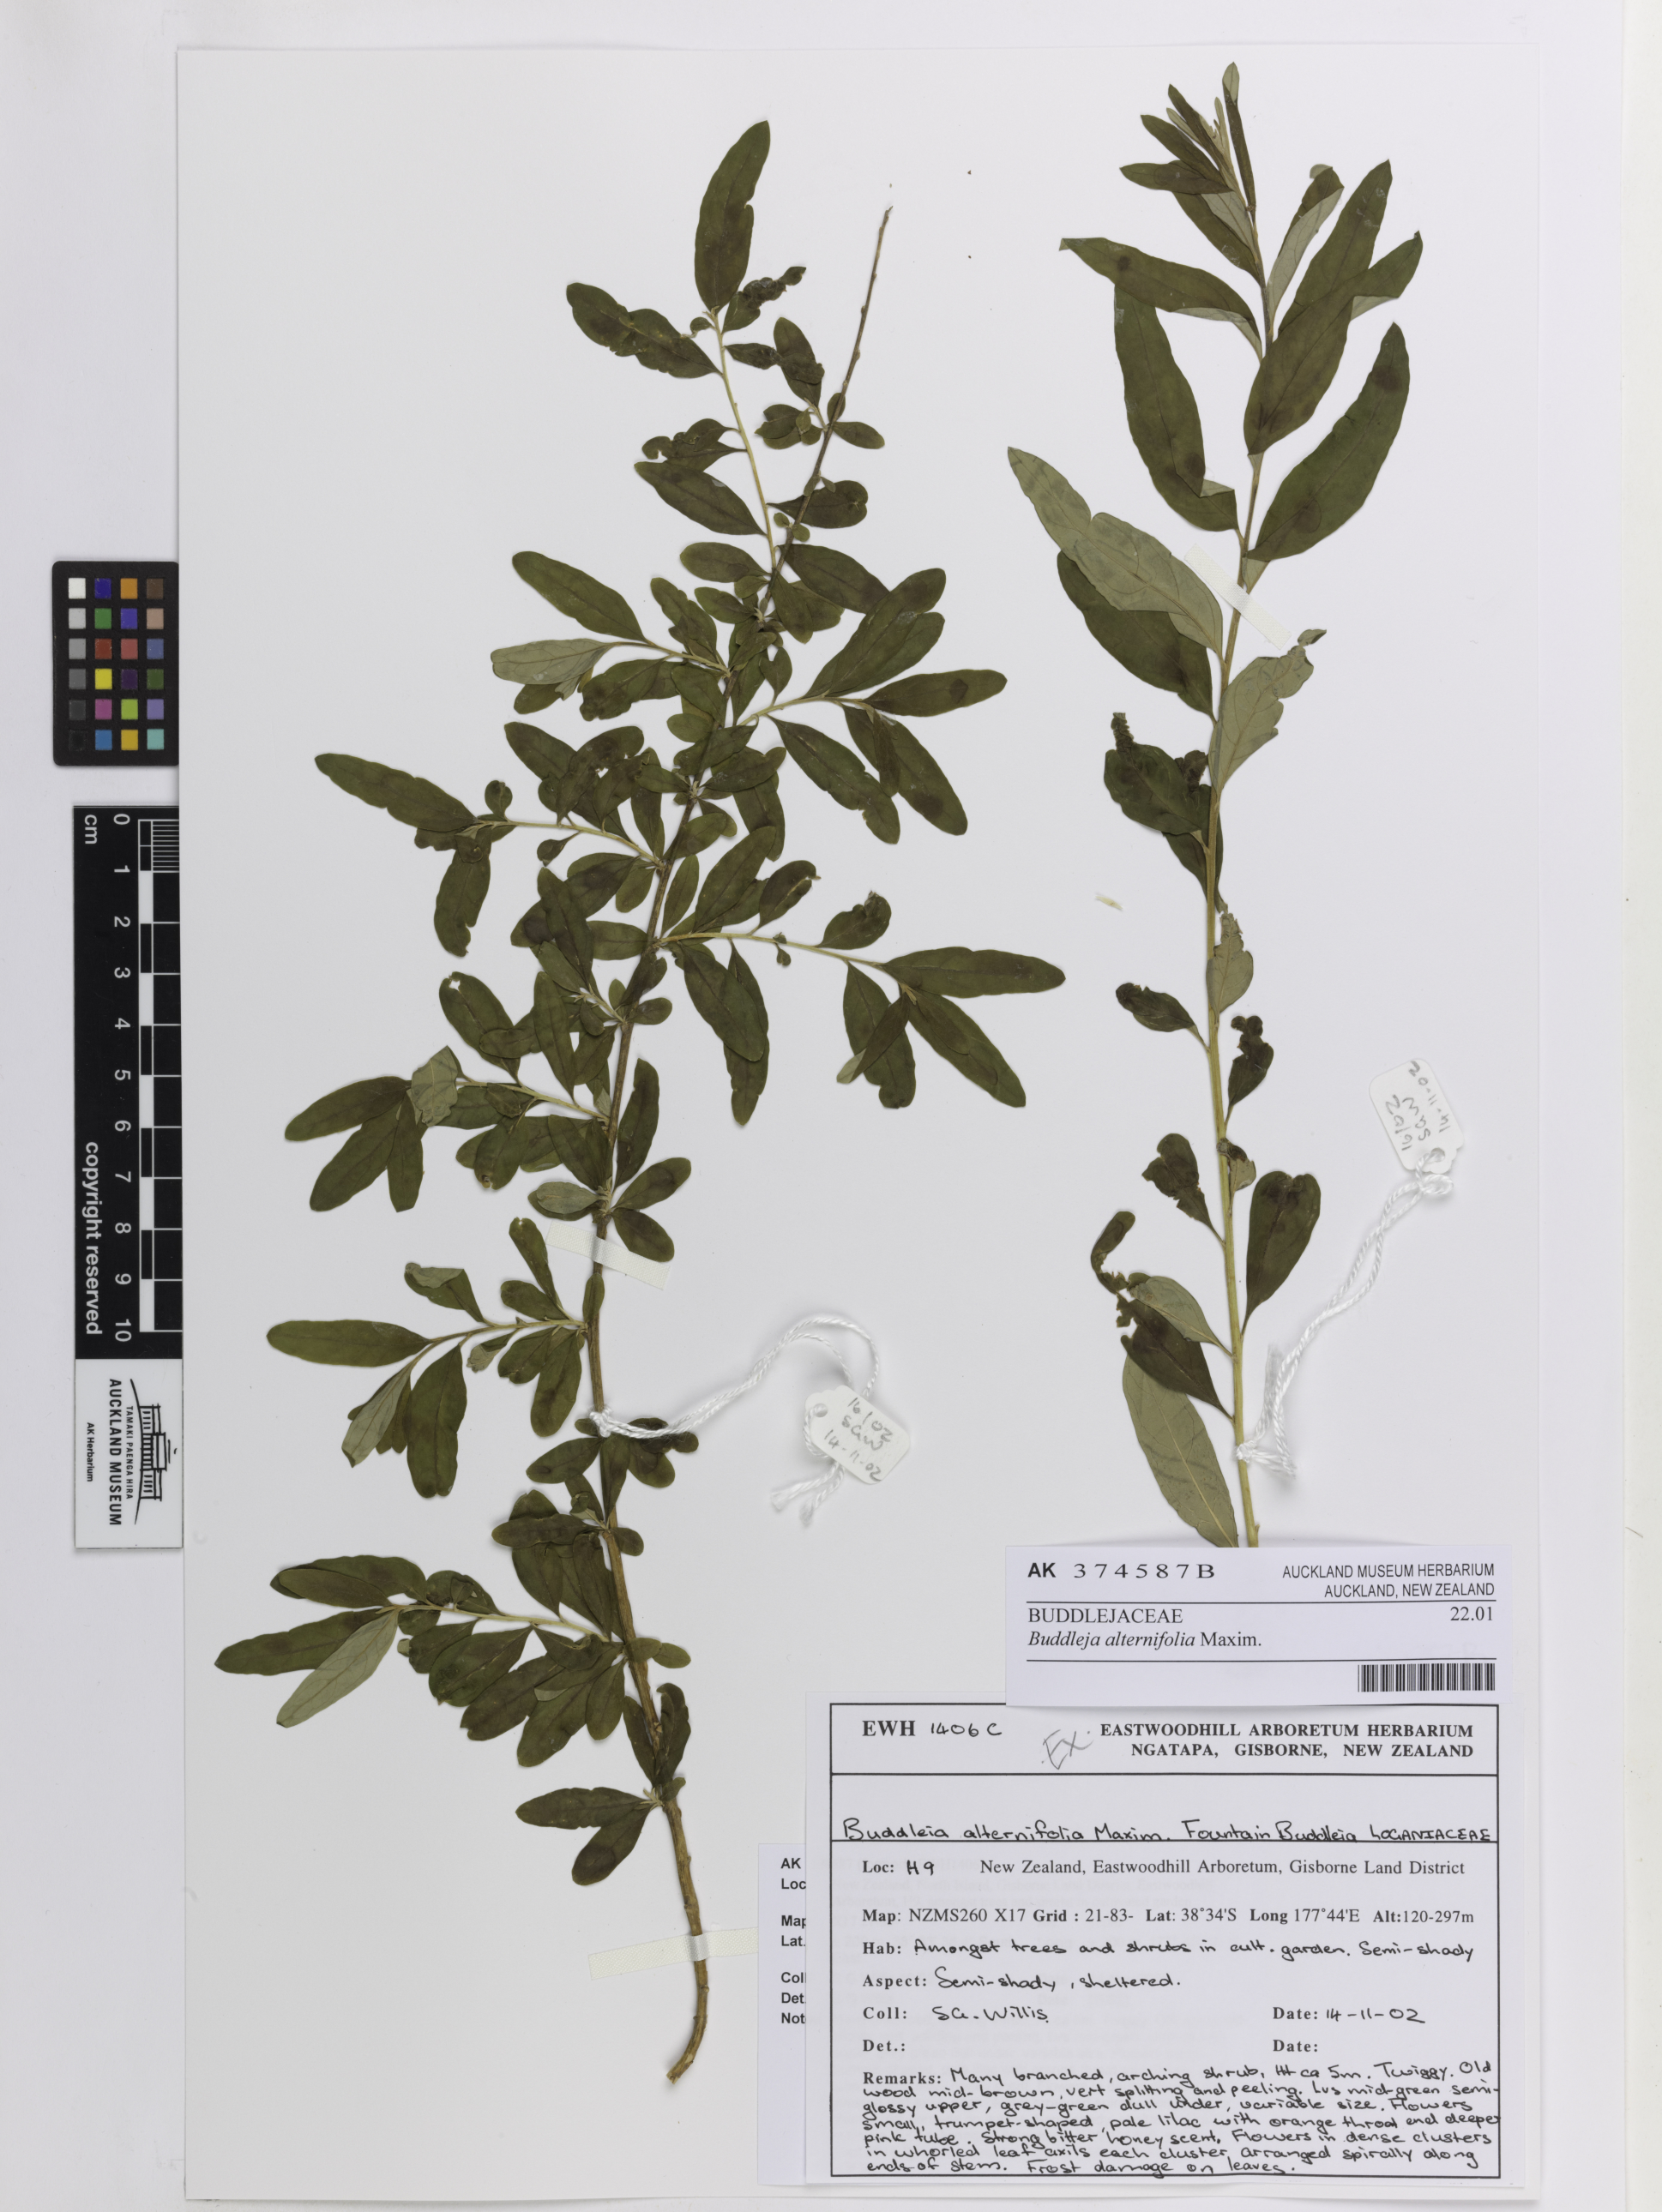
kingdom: Plantae
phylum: Tracheophyta
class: Magnoliopsida
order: Lamiales
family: Scrophulariaceae
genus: Buddleja
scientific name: Buddleja alternifolia
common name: Alternate-leaved butterfly-bush
